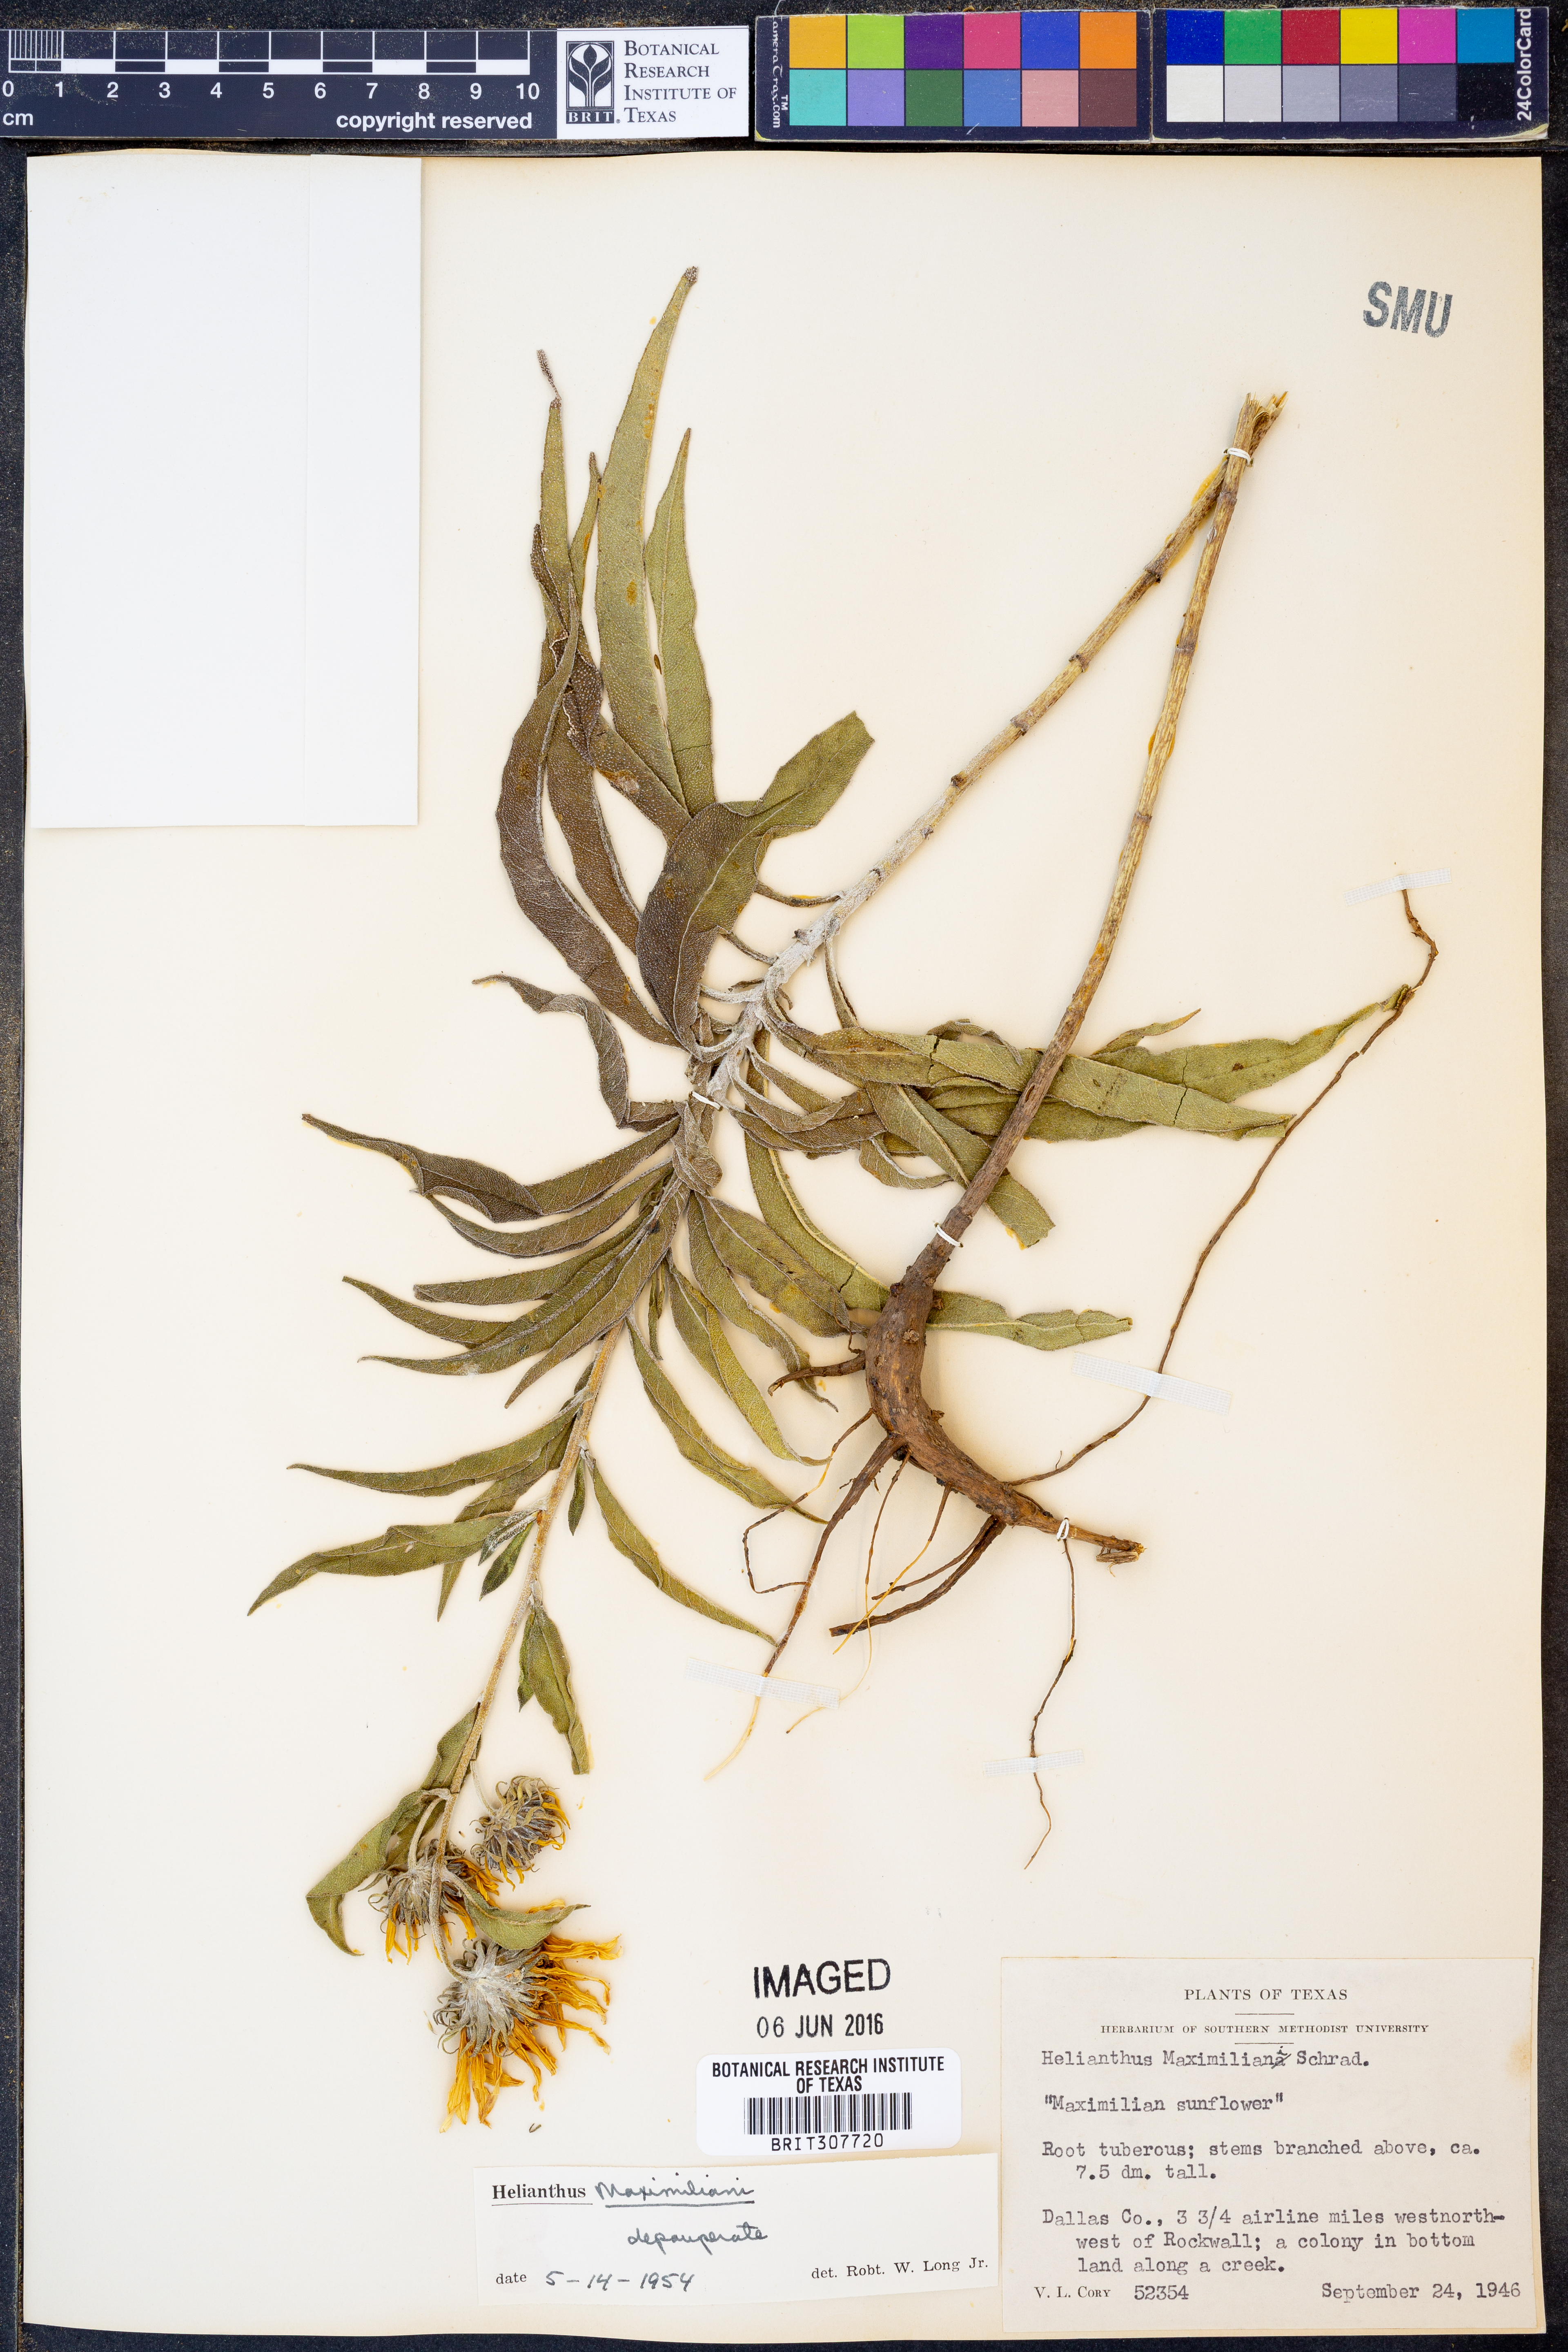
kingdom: Plantae
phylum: Tracheophyta
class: Magnoliopsida
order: Asterales
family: Asteraceae
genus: Helianthus
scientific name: Helianthus maximiliani
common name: Maximilian's sunflower
